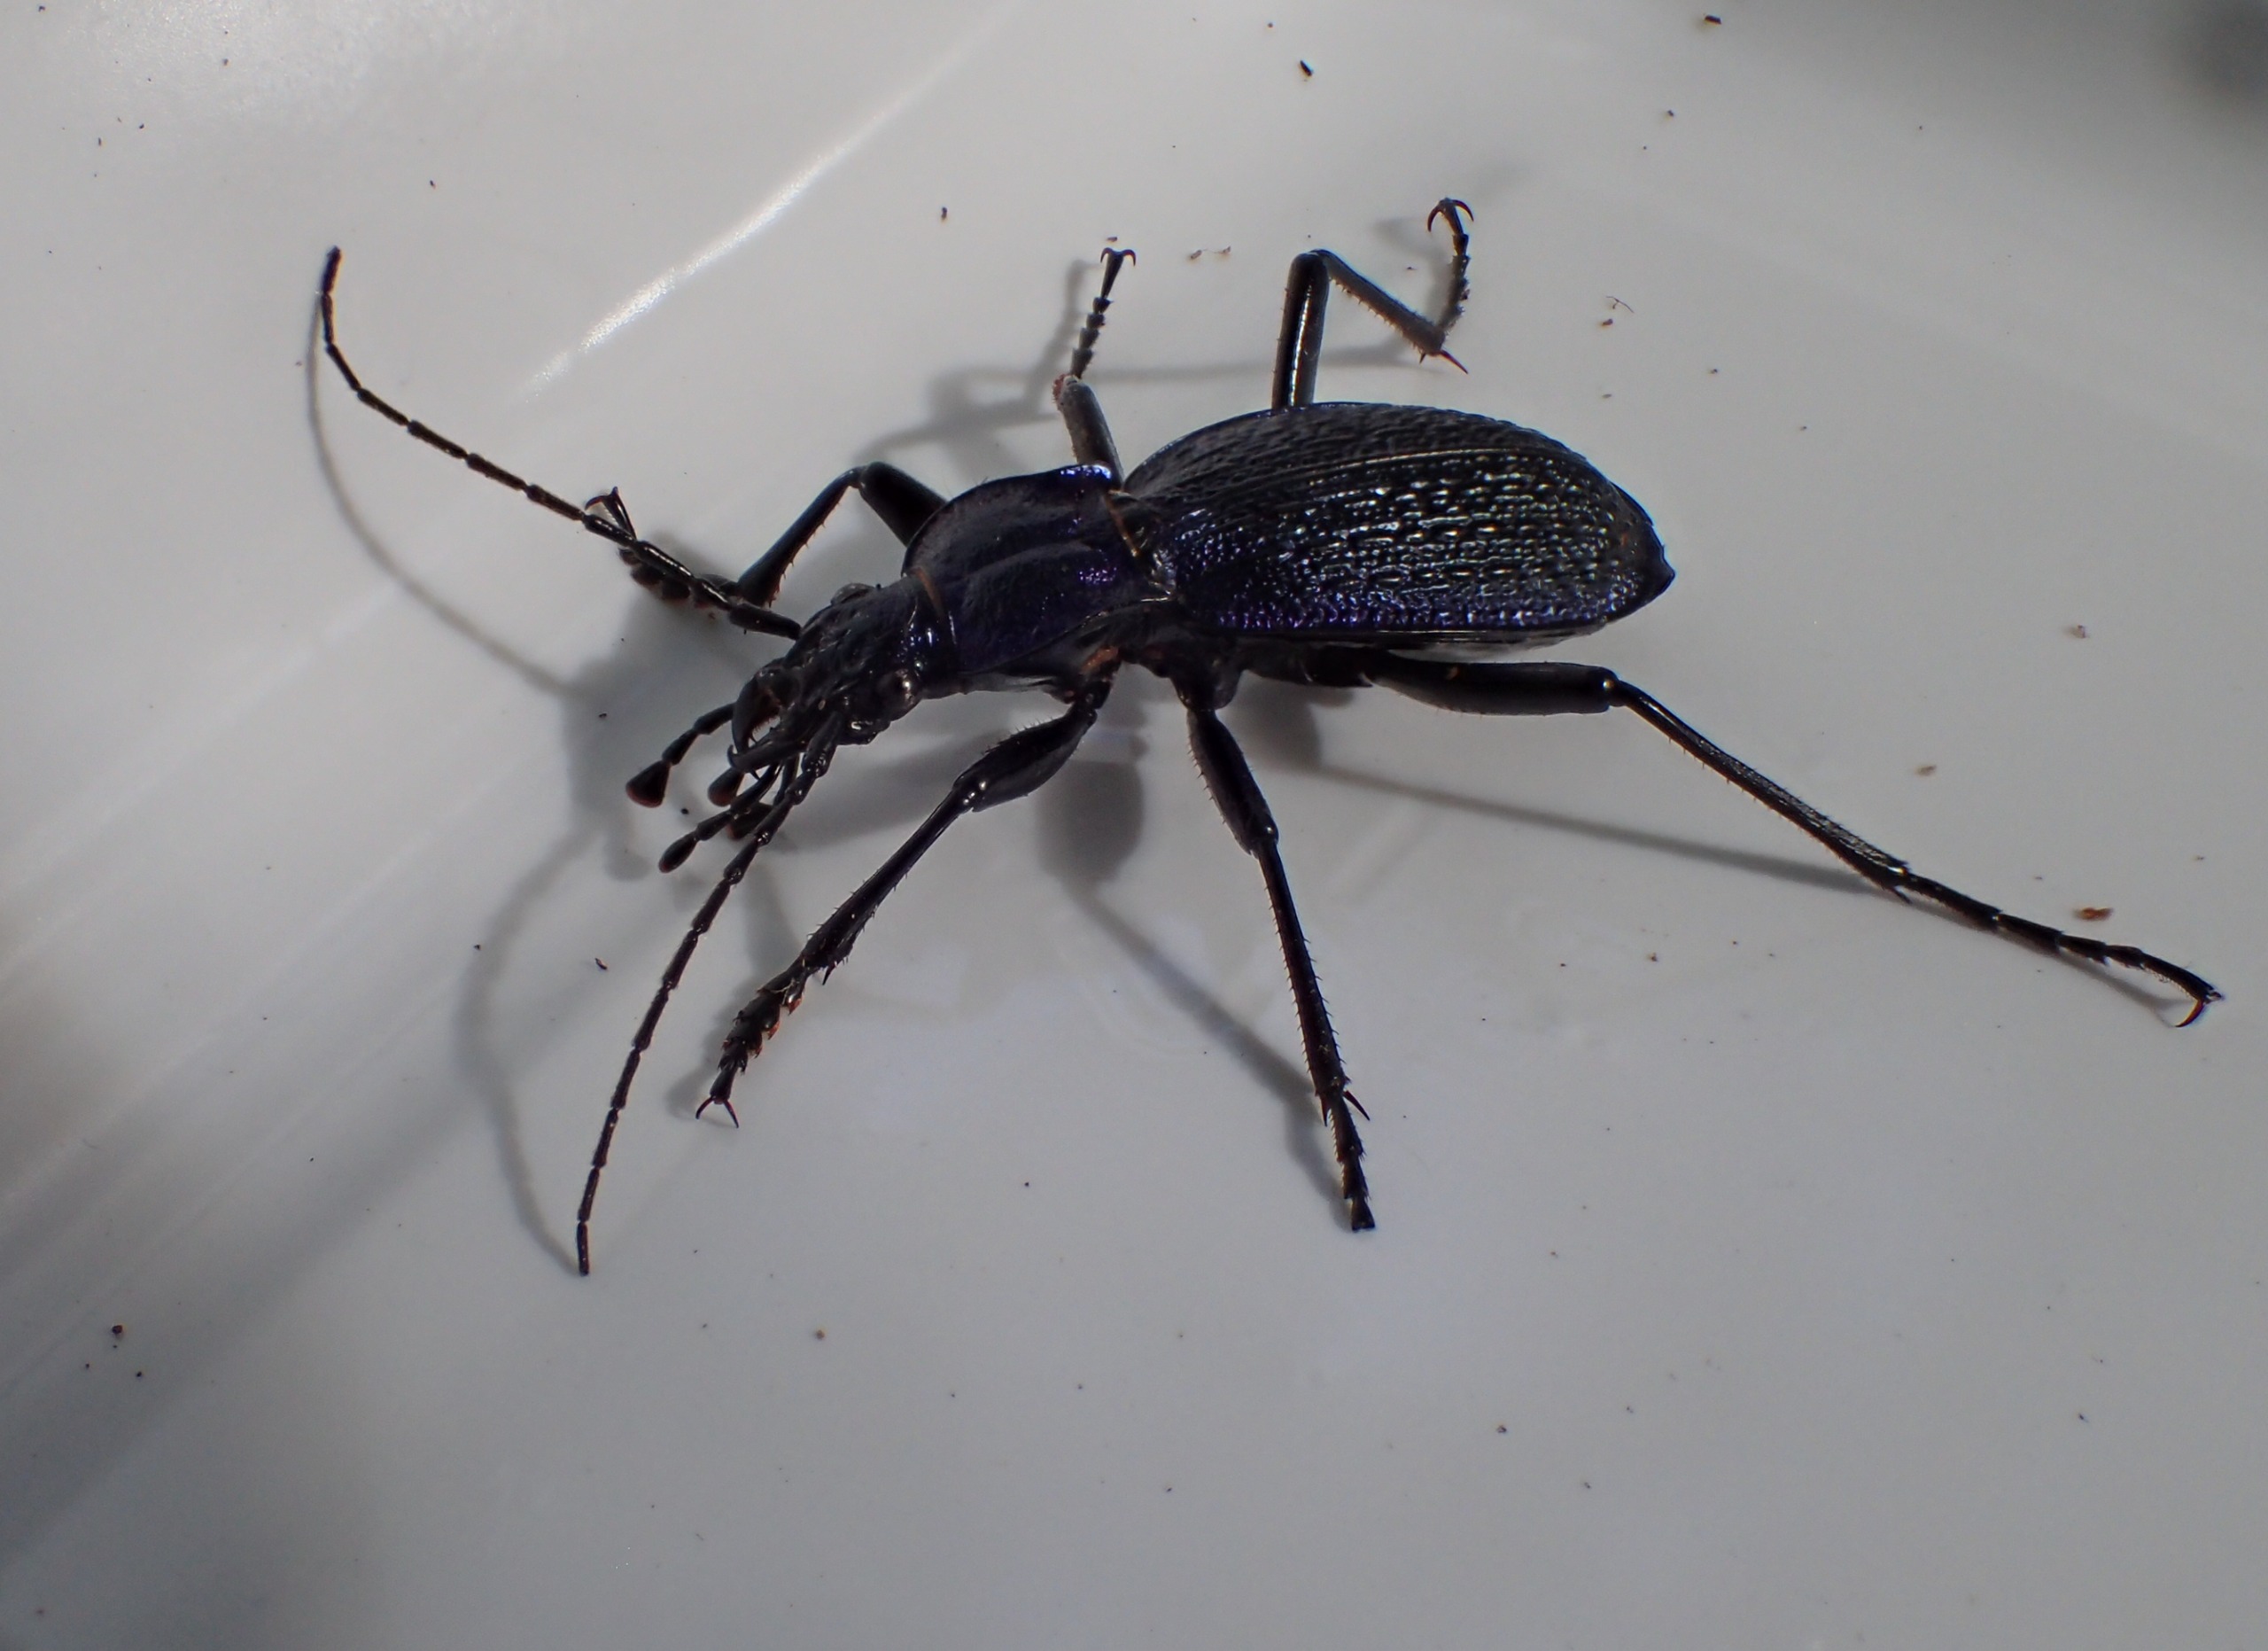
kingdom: Animalia
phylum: Arthropoda
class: Insecta
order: Coleoptera
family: Carabidae
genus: Carabus
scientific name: Carabus intricatus
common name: Bøgeløber
